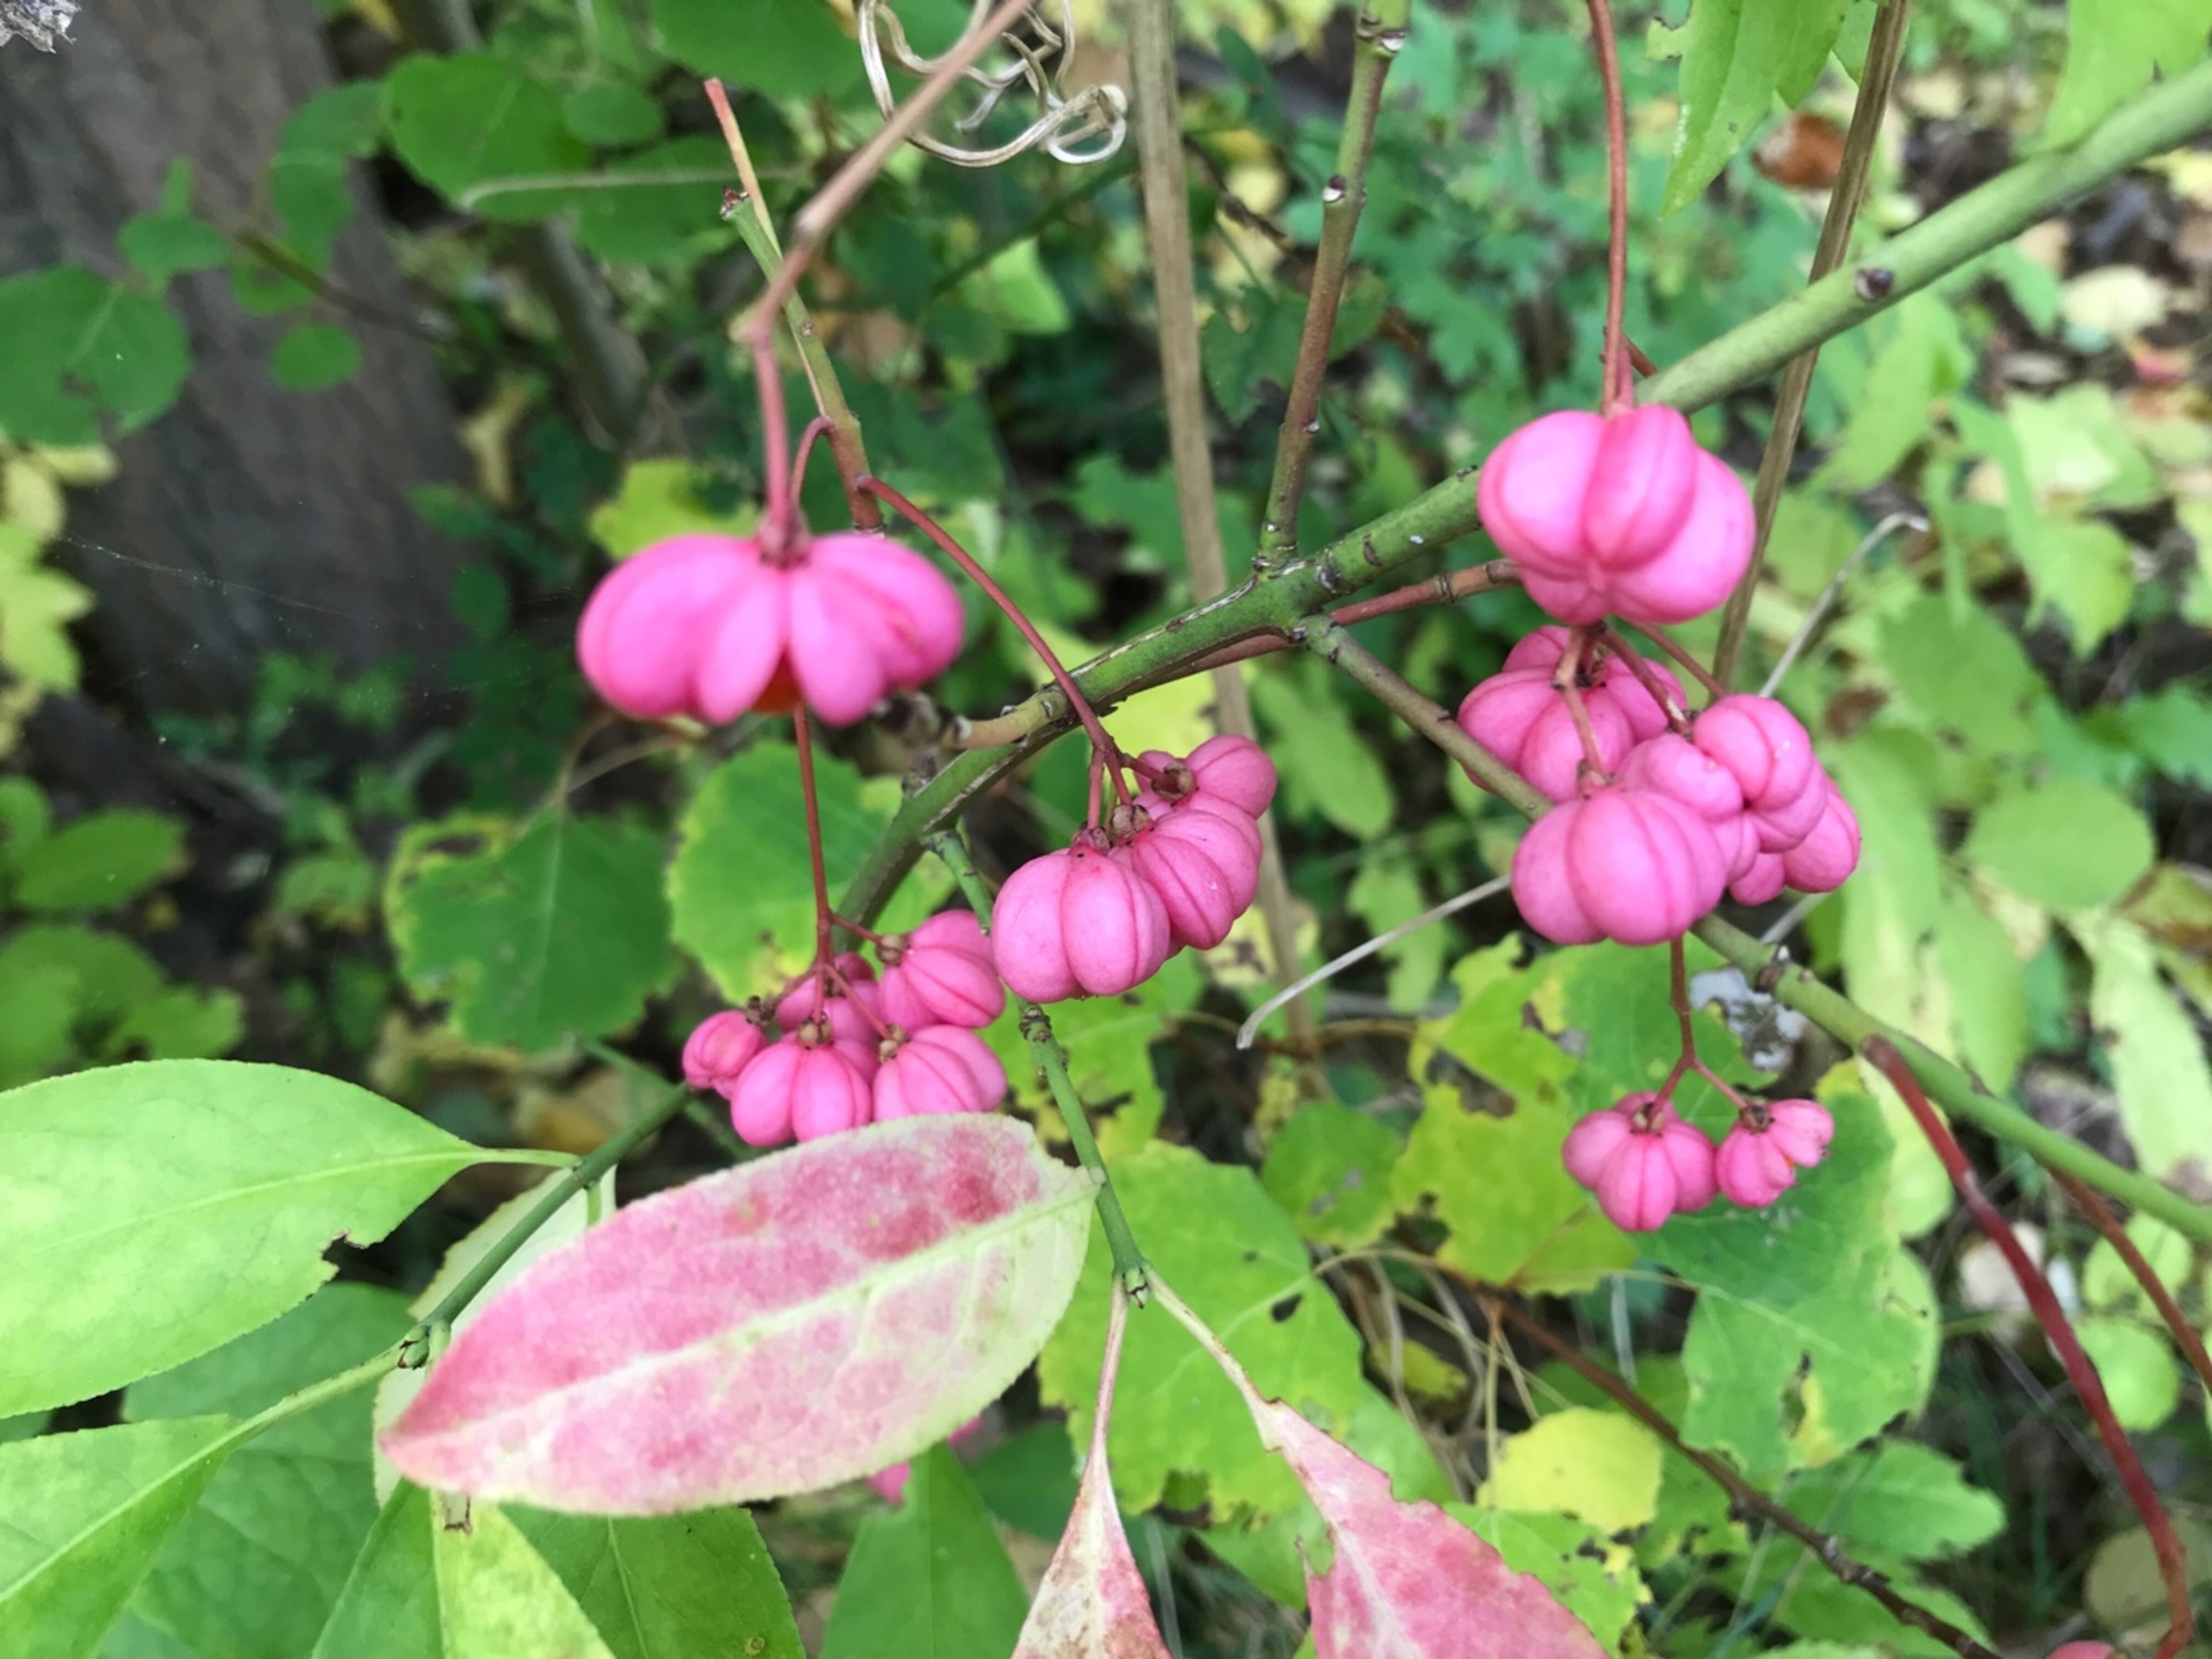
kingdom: Plantae
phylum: Tracheophyta
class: Magnoliopsida
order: Celastrales
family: Celastraceae
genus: Euonymus
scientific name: Euonymus europaeus
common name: Benved
